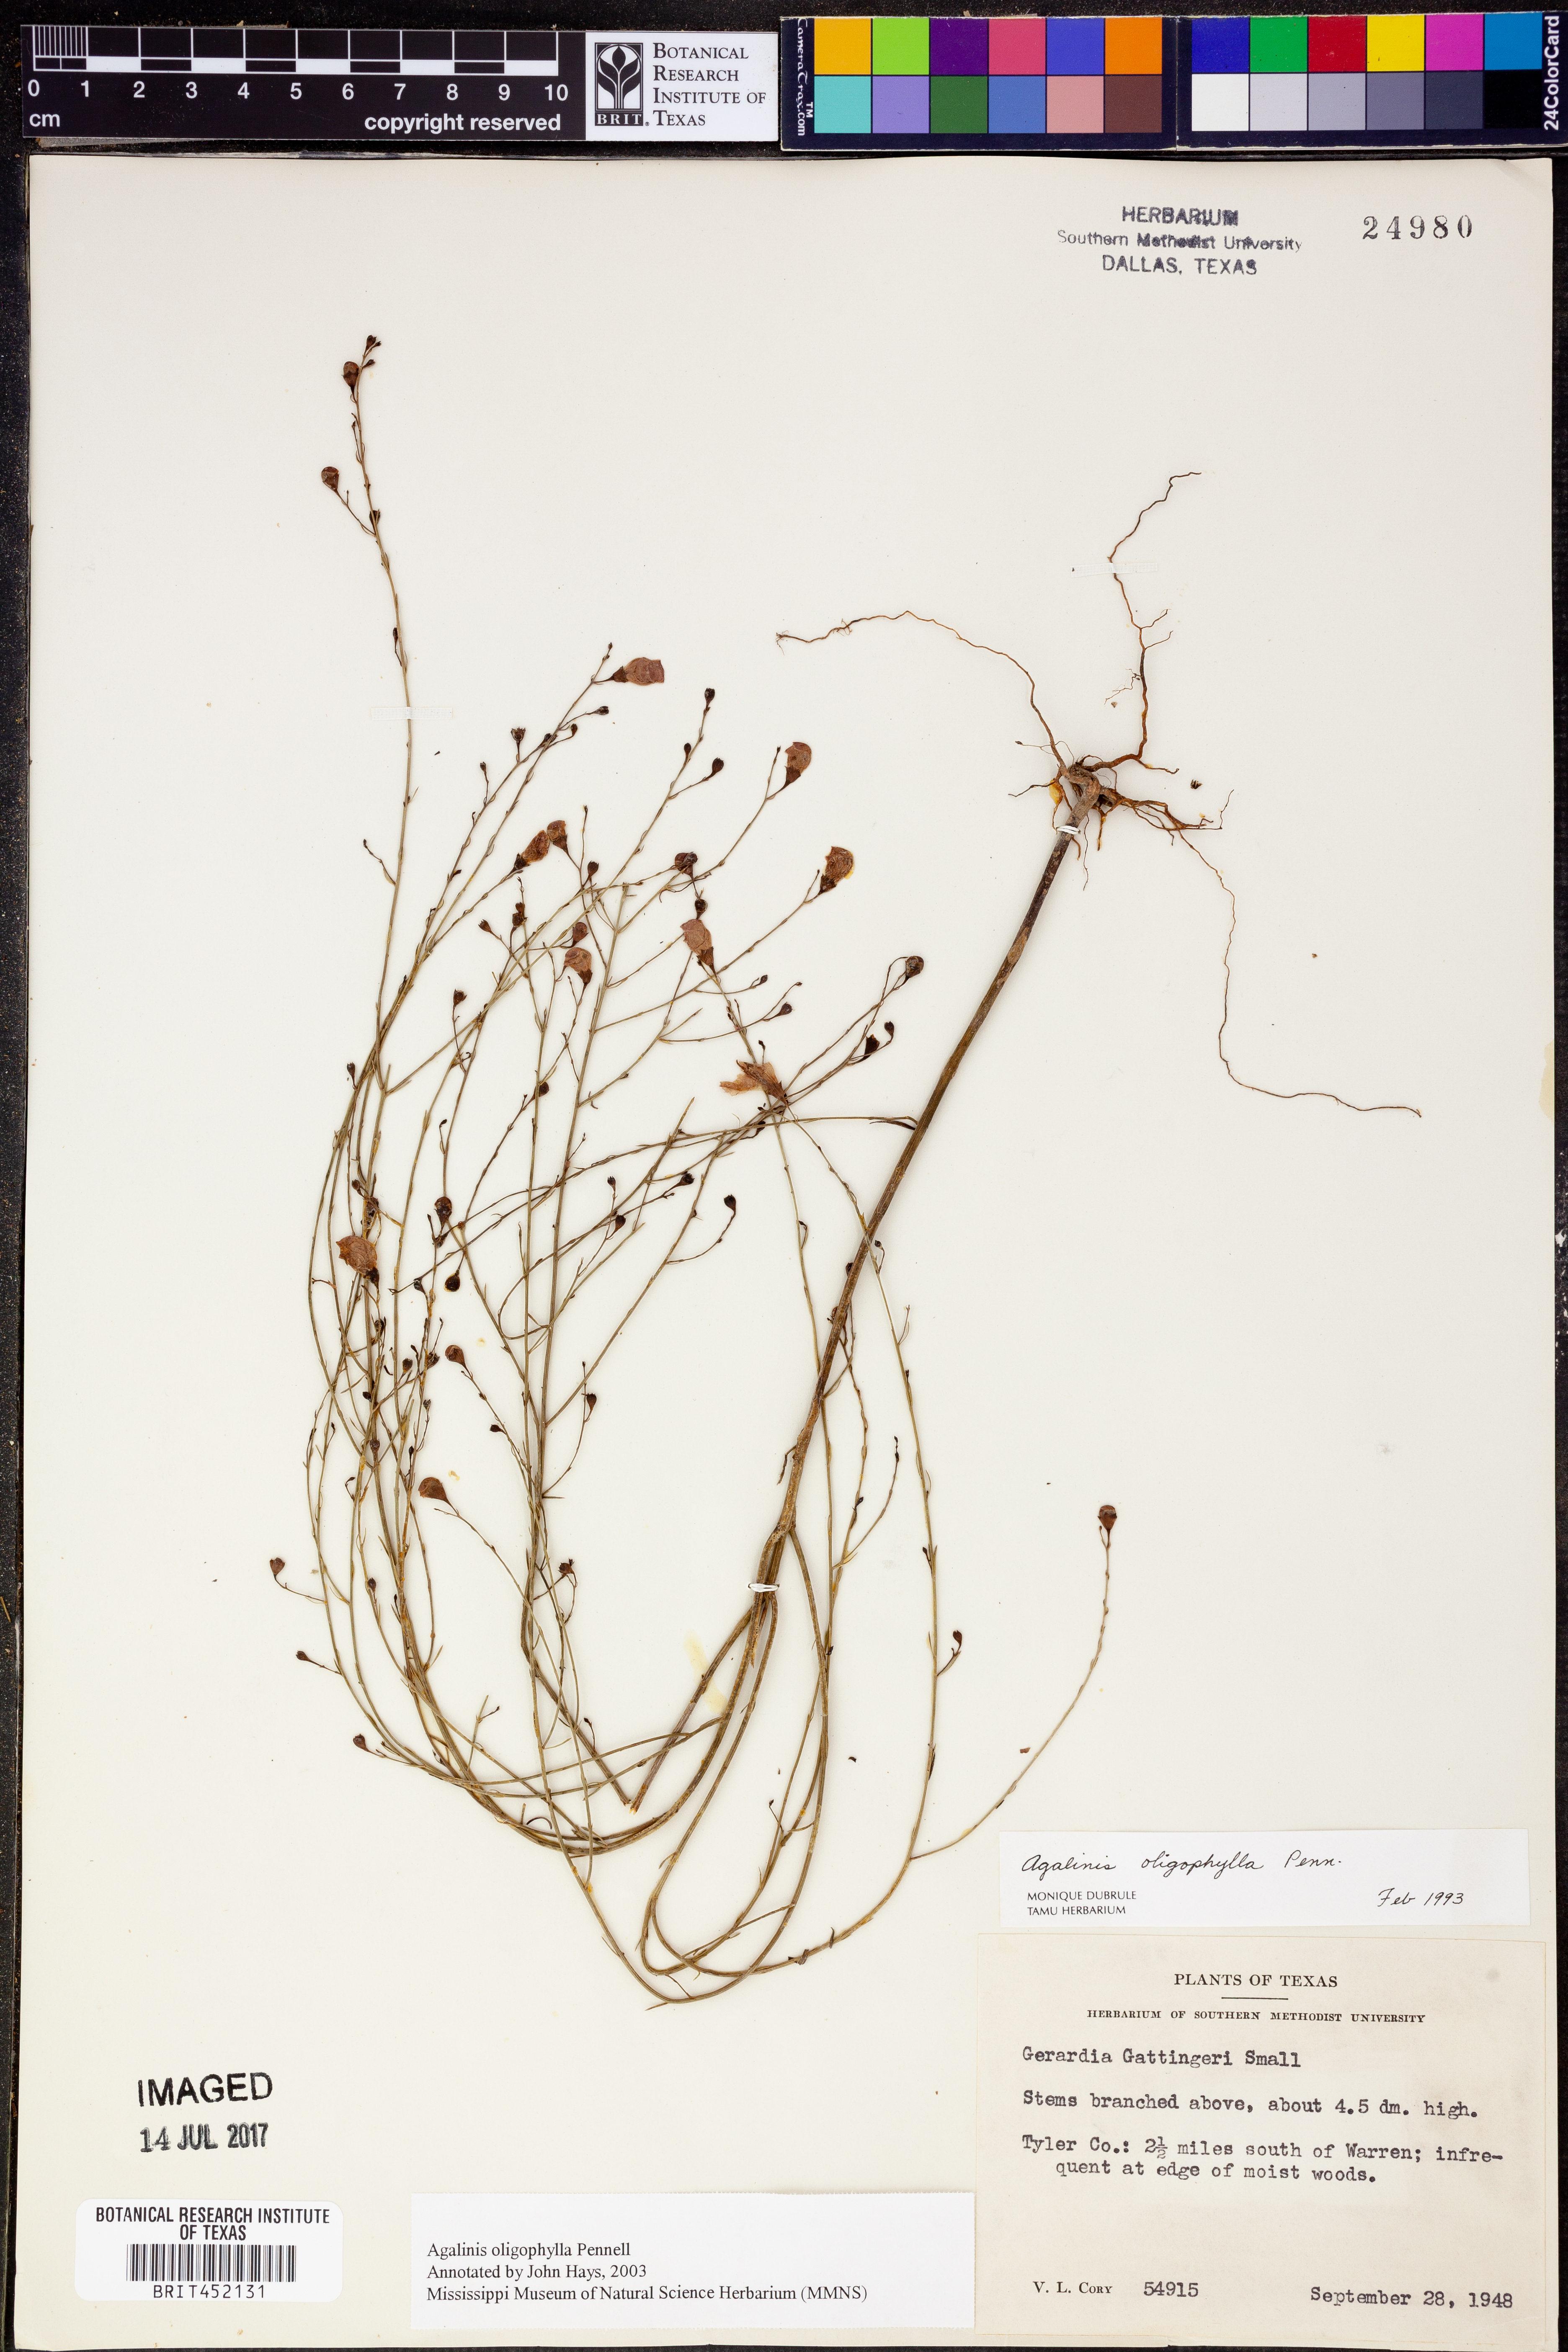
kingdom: Plantae
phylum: Tracheophyta
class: Magnoliopsida
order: Lamiales
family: Orobanchaceae
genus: Agalinis
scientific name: Agalinis oligophylla
